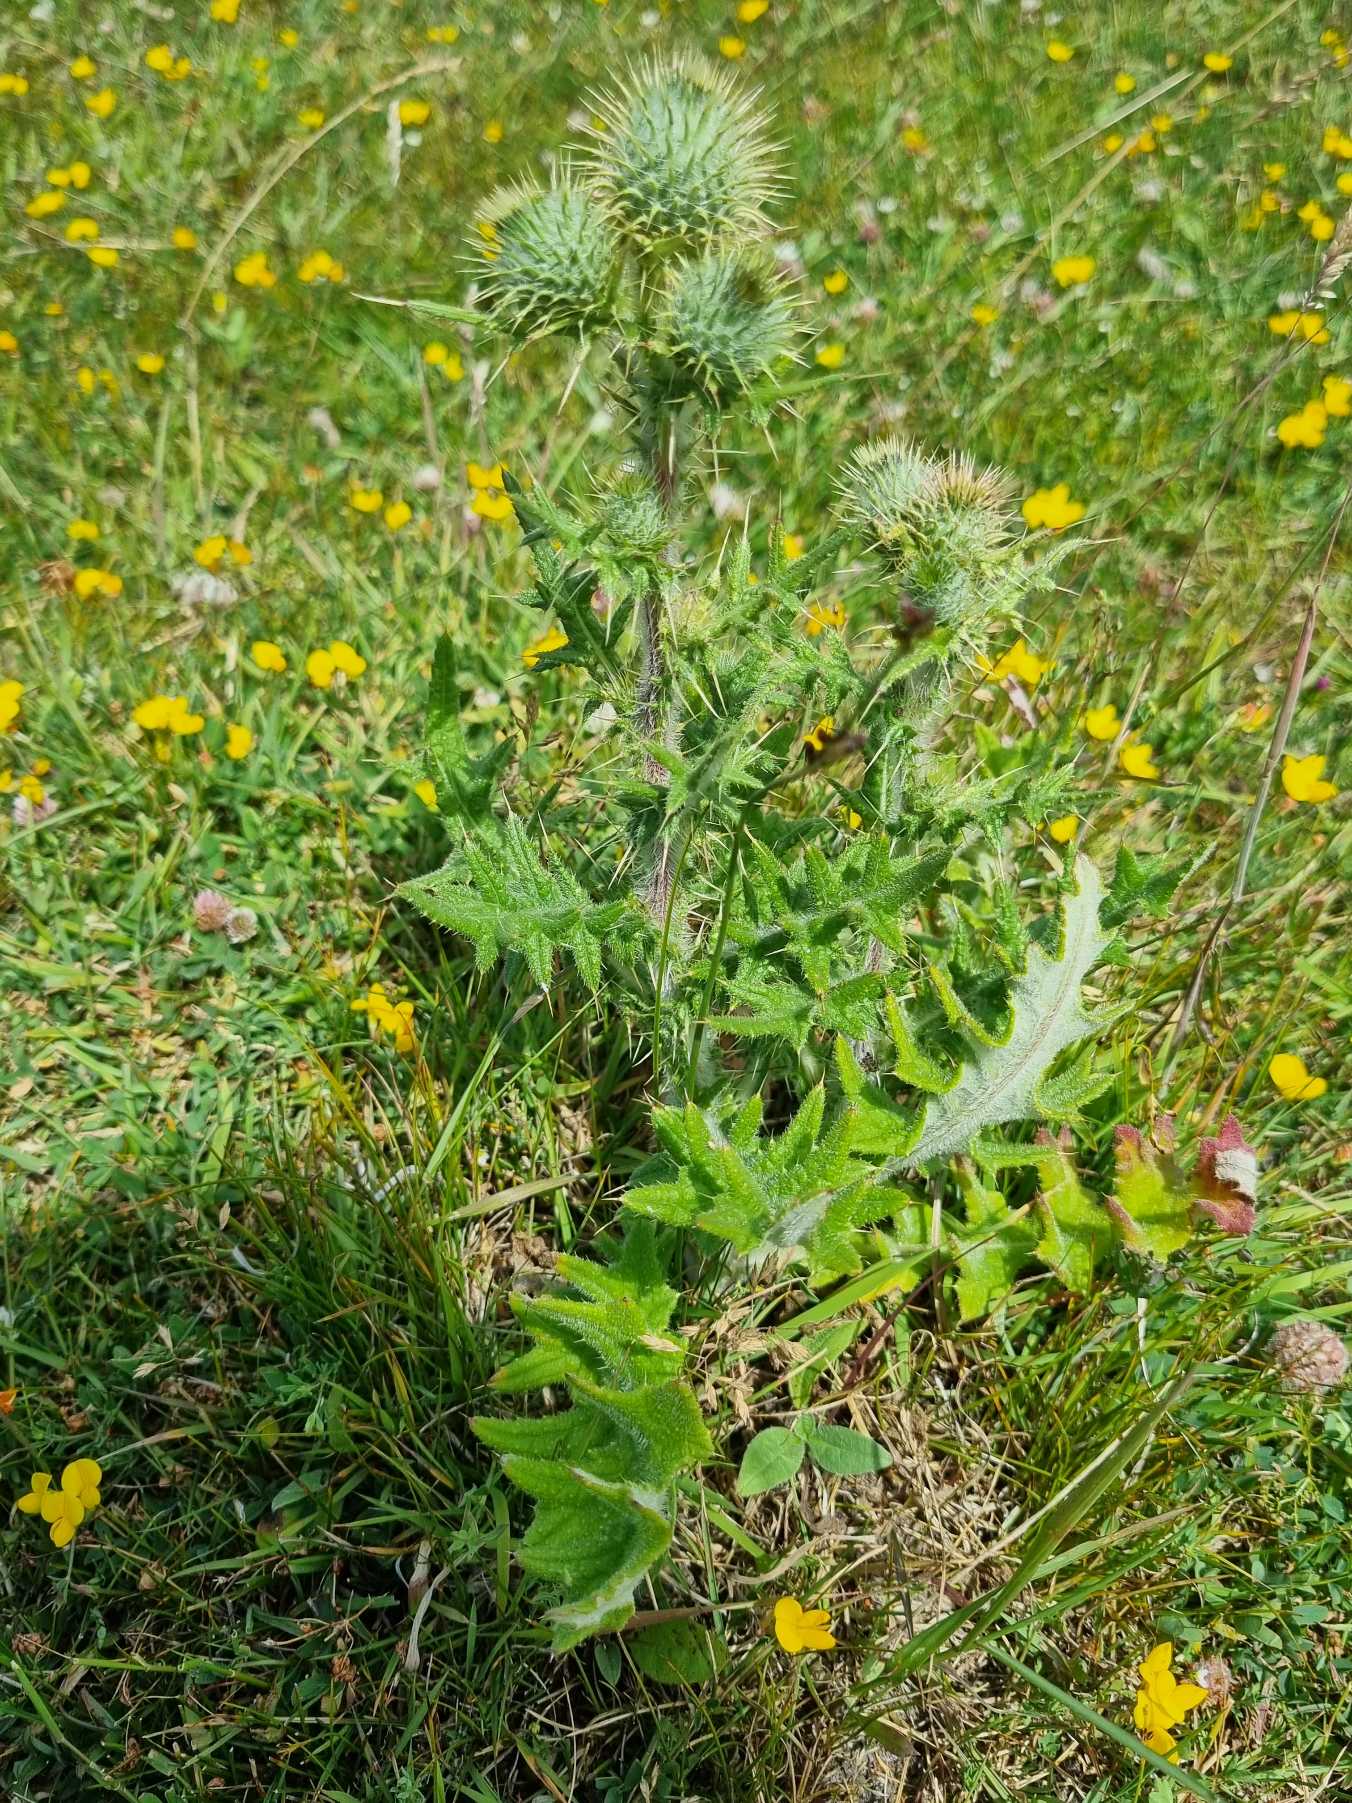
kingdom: Plantae
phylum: Tracheophyta
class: Magnoliopsida
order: Asterales
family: Asteraceae
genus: Cirsium
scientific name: Cirsium vulgare
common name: Horse-tidsel
